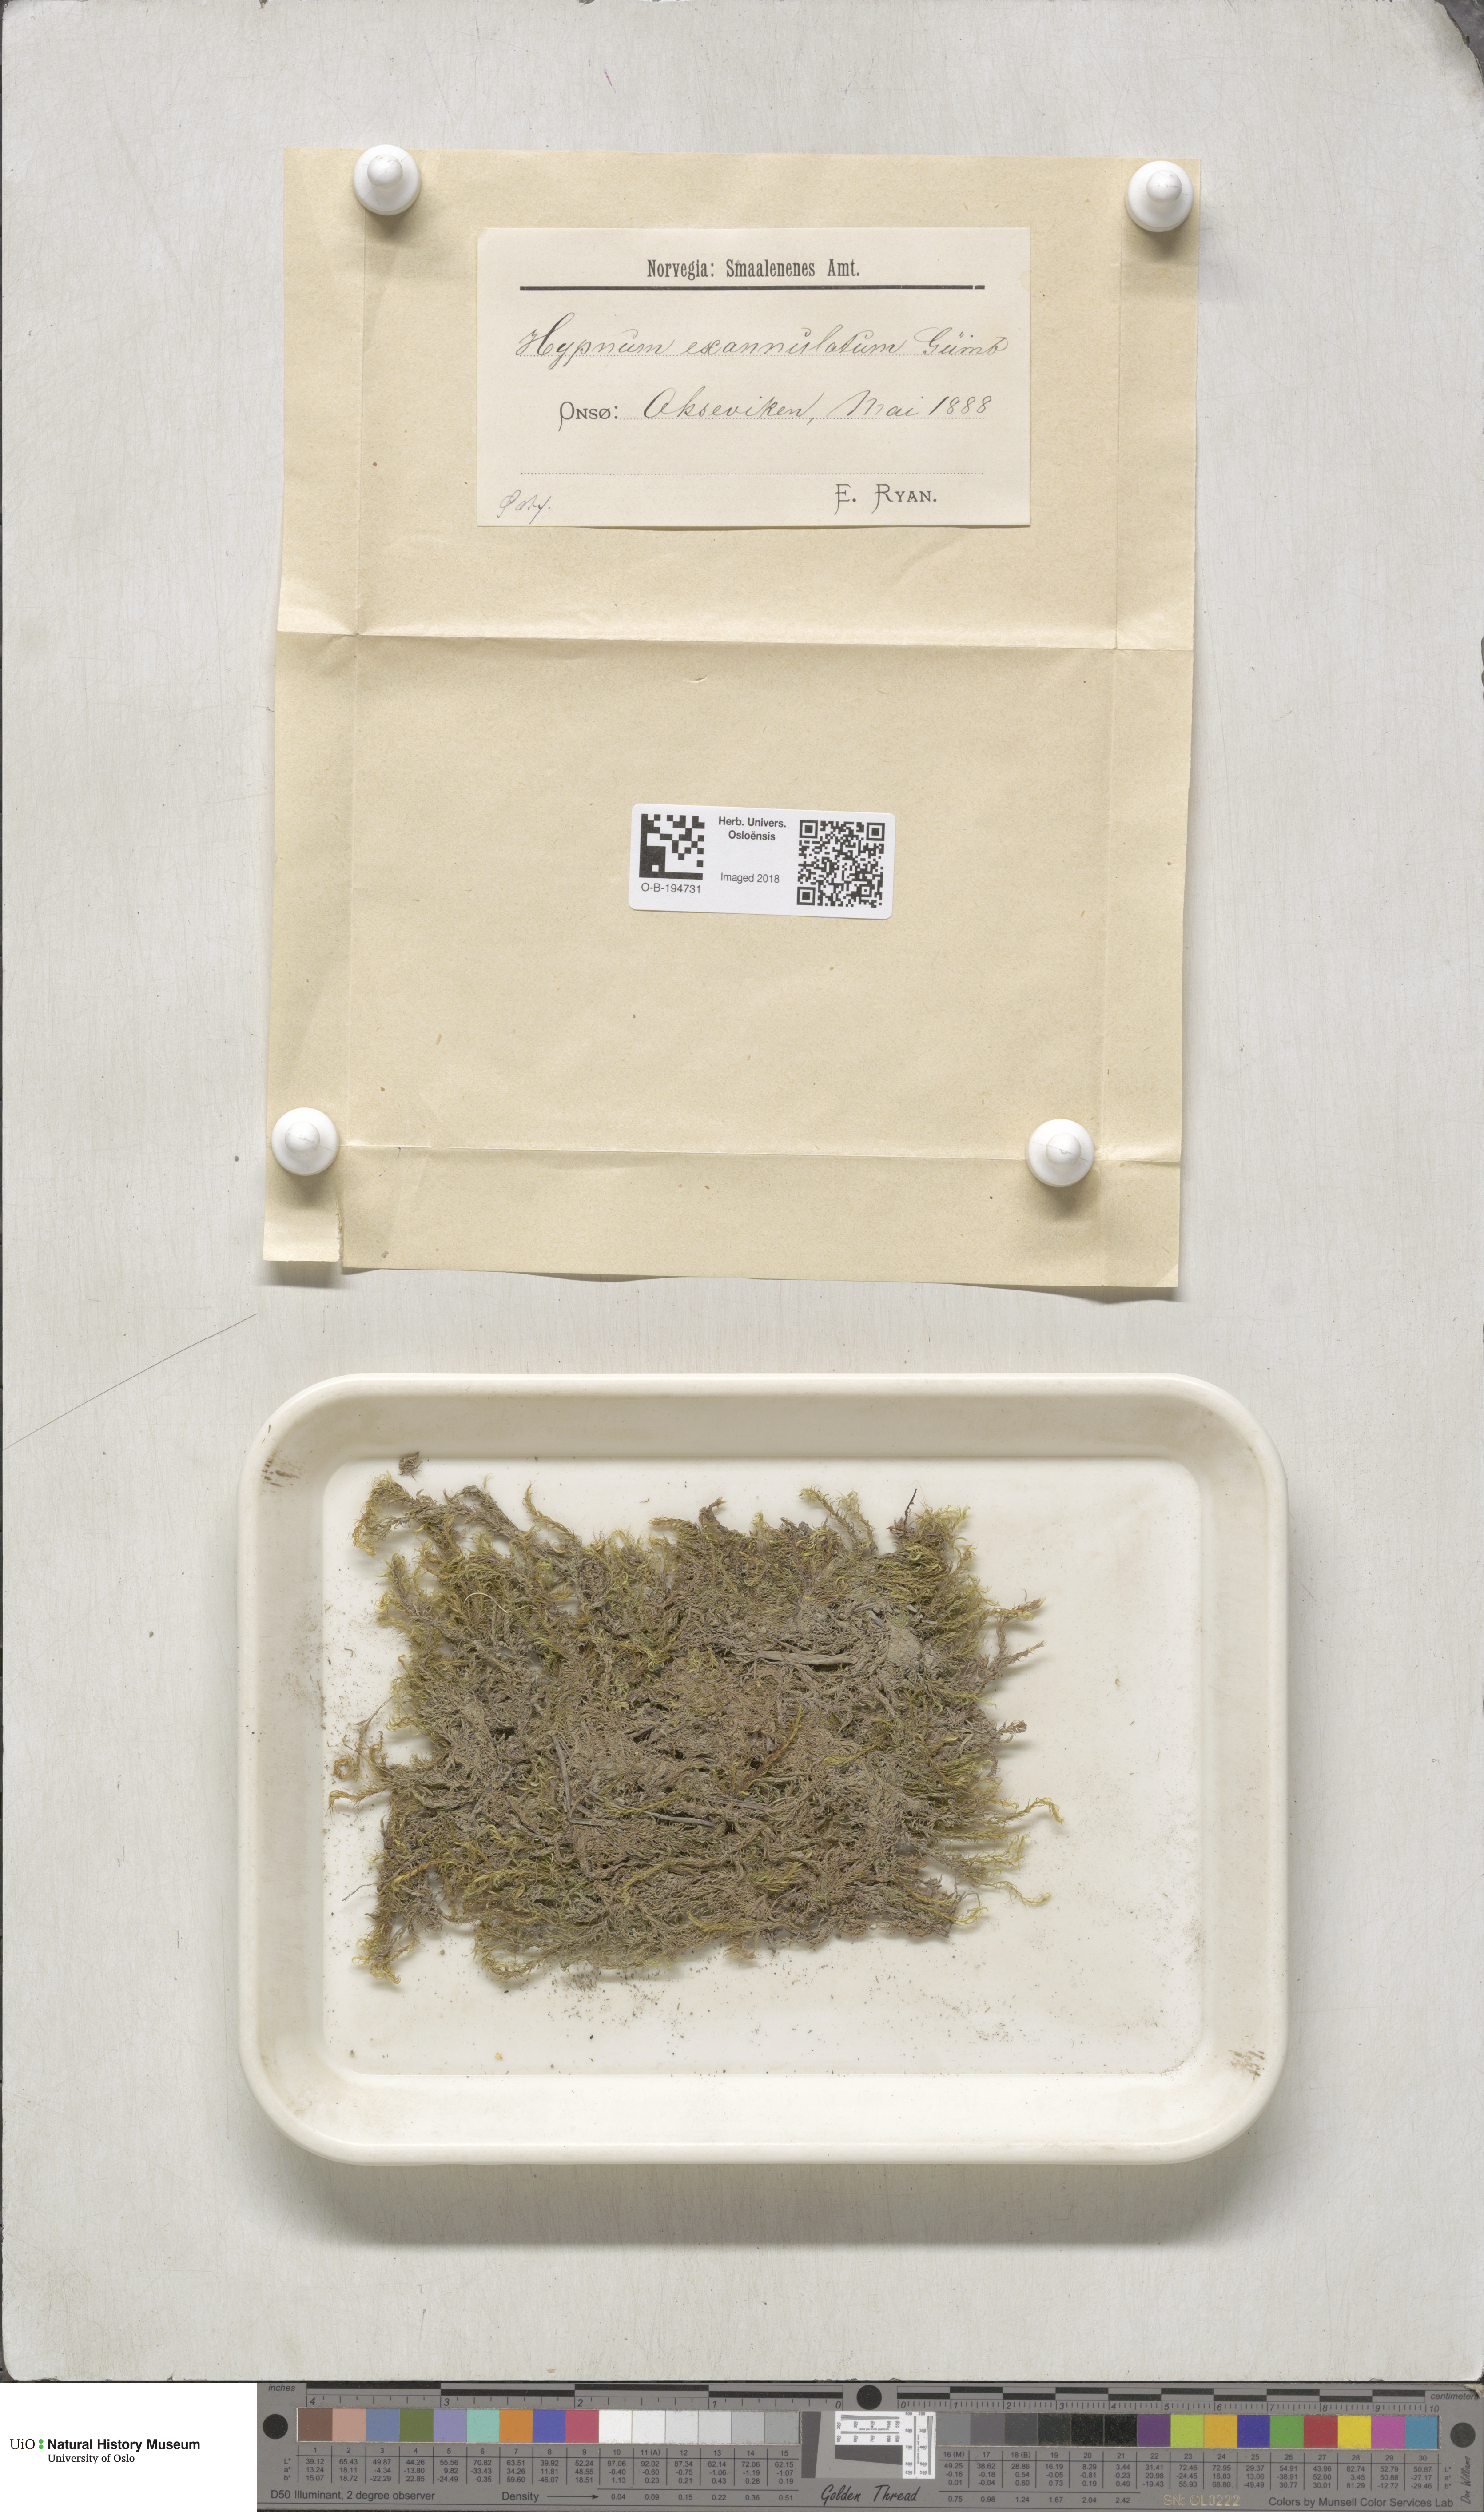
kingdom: Plantae
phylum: Bryophyta
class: Bryopsida
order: Hypnales
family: Calliergonaceae
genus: Sarmentypnum
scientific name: Sarmentypnum exannulatum
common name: Ringless spoon moss
